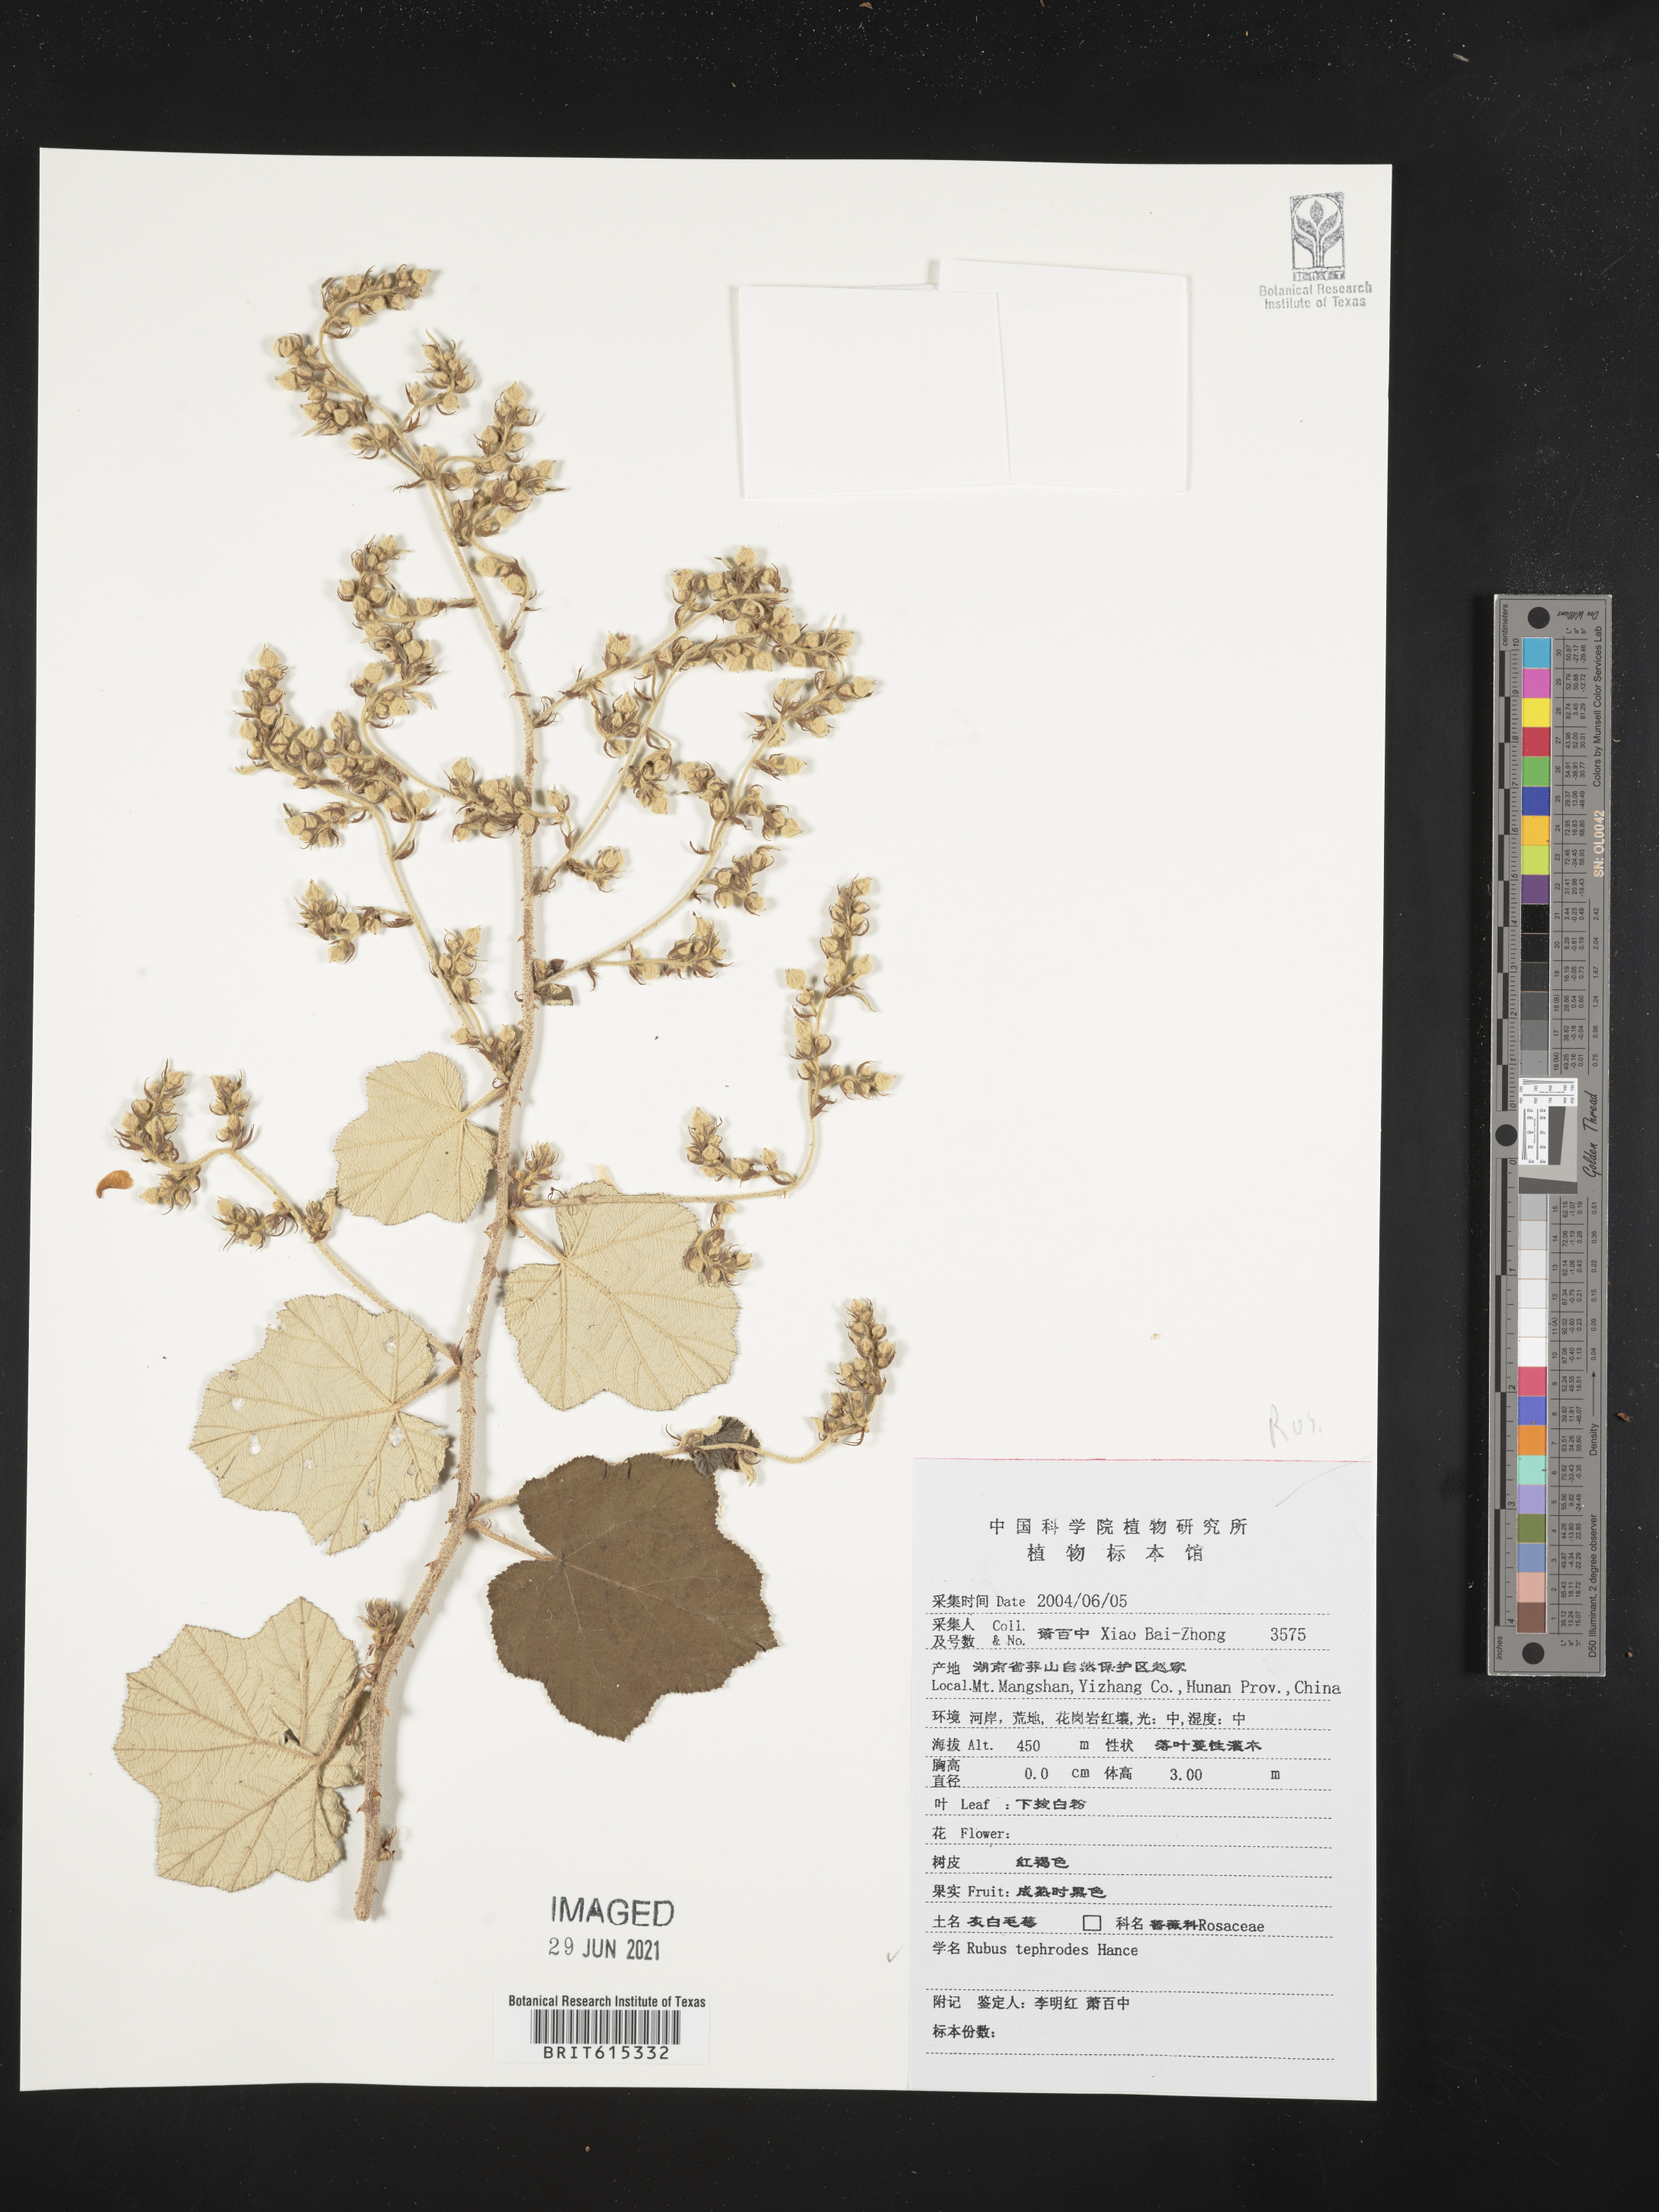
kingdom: Plantae
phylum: Tracheophyta
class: Magnoliopsida
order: Rosales
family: Rosaceae
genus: Rubus
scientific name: Rubus tephrodes
